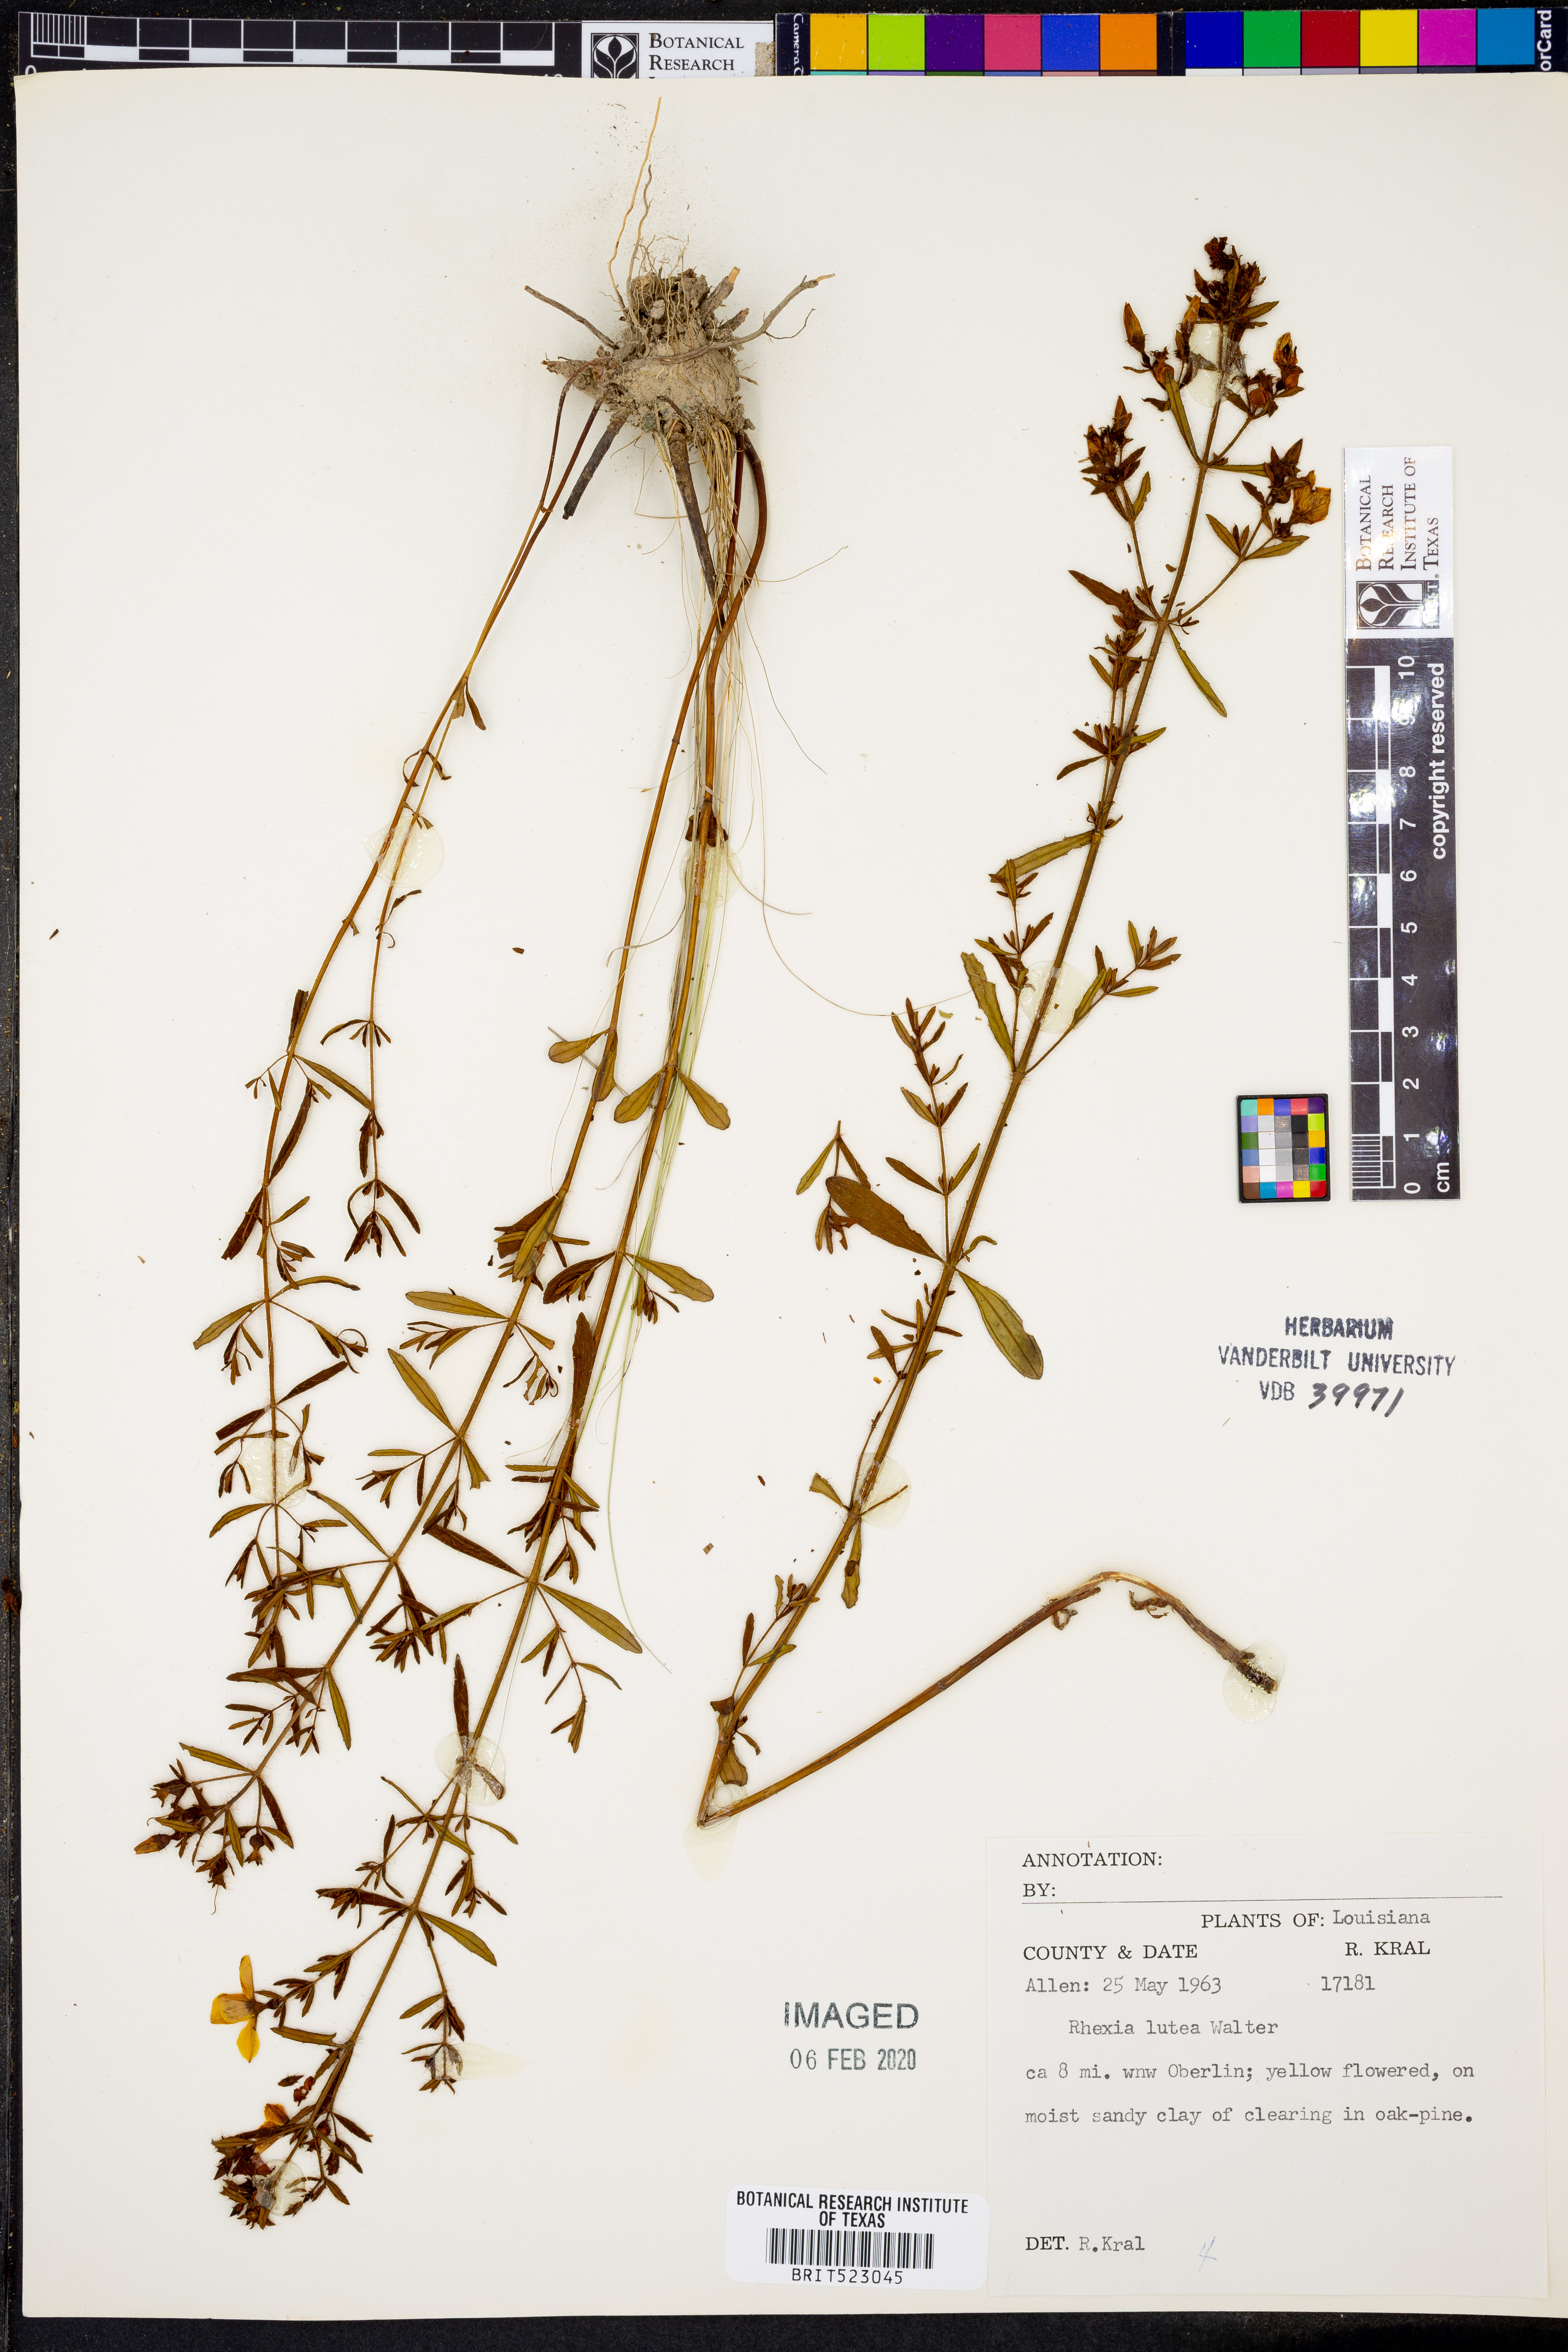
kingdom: Plantae
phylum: Tracheophyta
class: Magnoliopsida
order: Myrtales
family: Melastomataceae
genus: Rhexia
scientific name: Rhexia lutea
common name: Golden meadow-beauty
